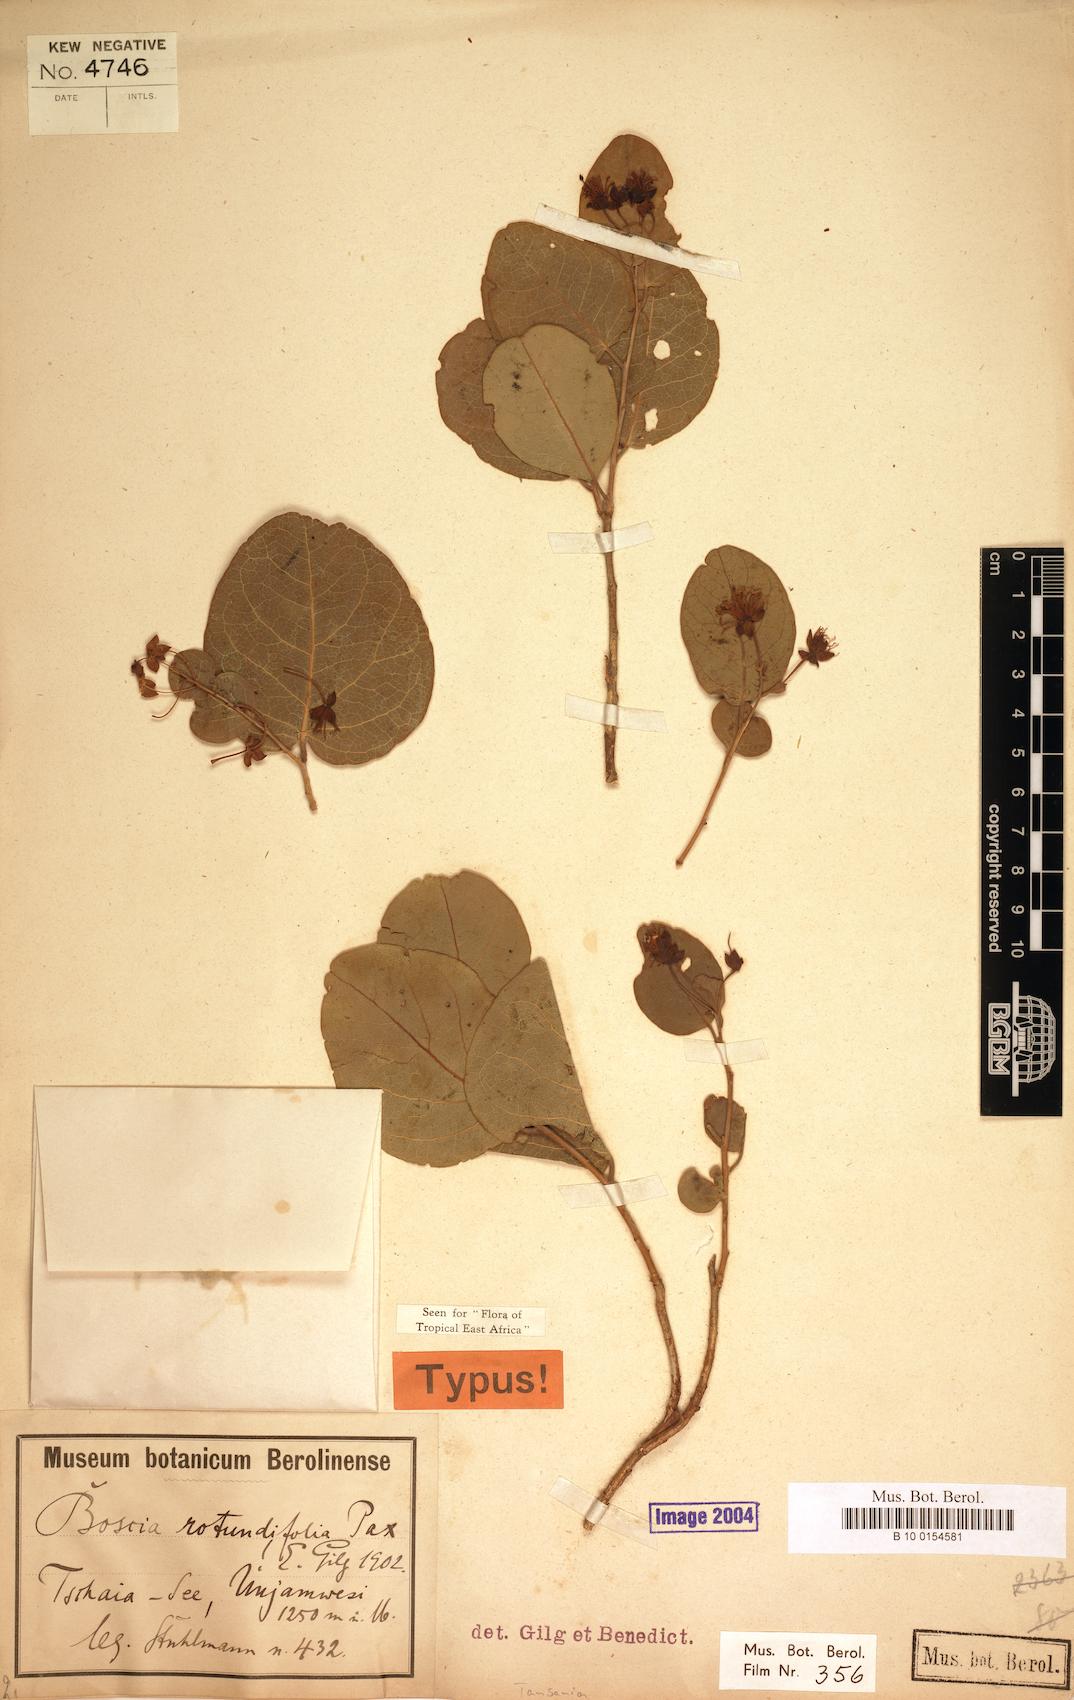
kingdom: Plantae
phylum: Tracheophyta
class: Magnoliopsida
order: Brassicales
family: Capparaceae
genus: Boscia
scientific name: Boscia rotundifolia
